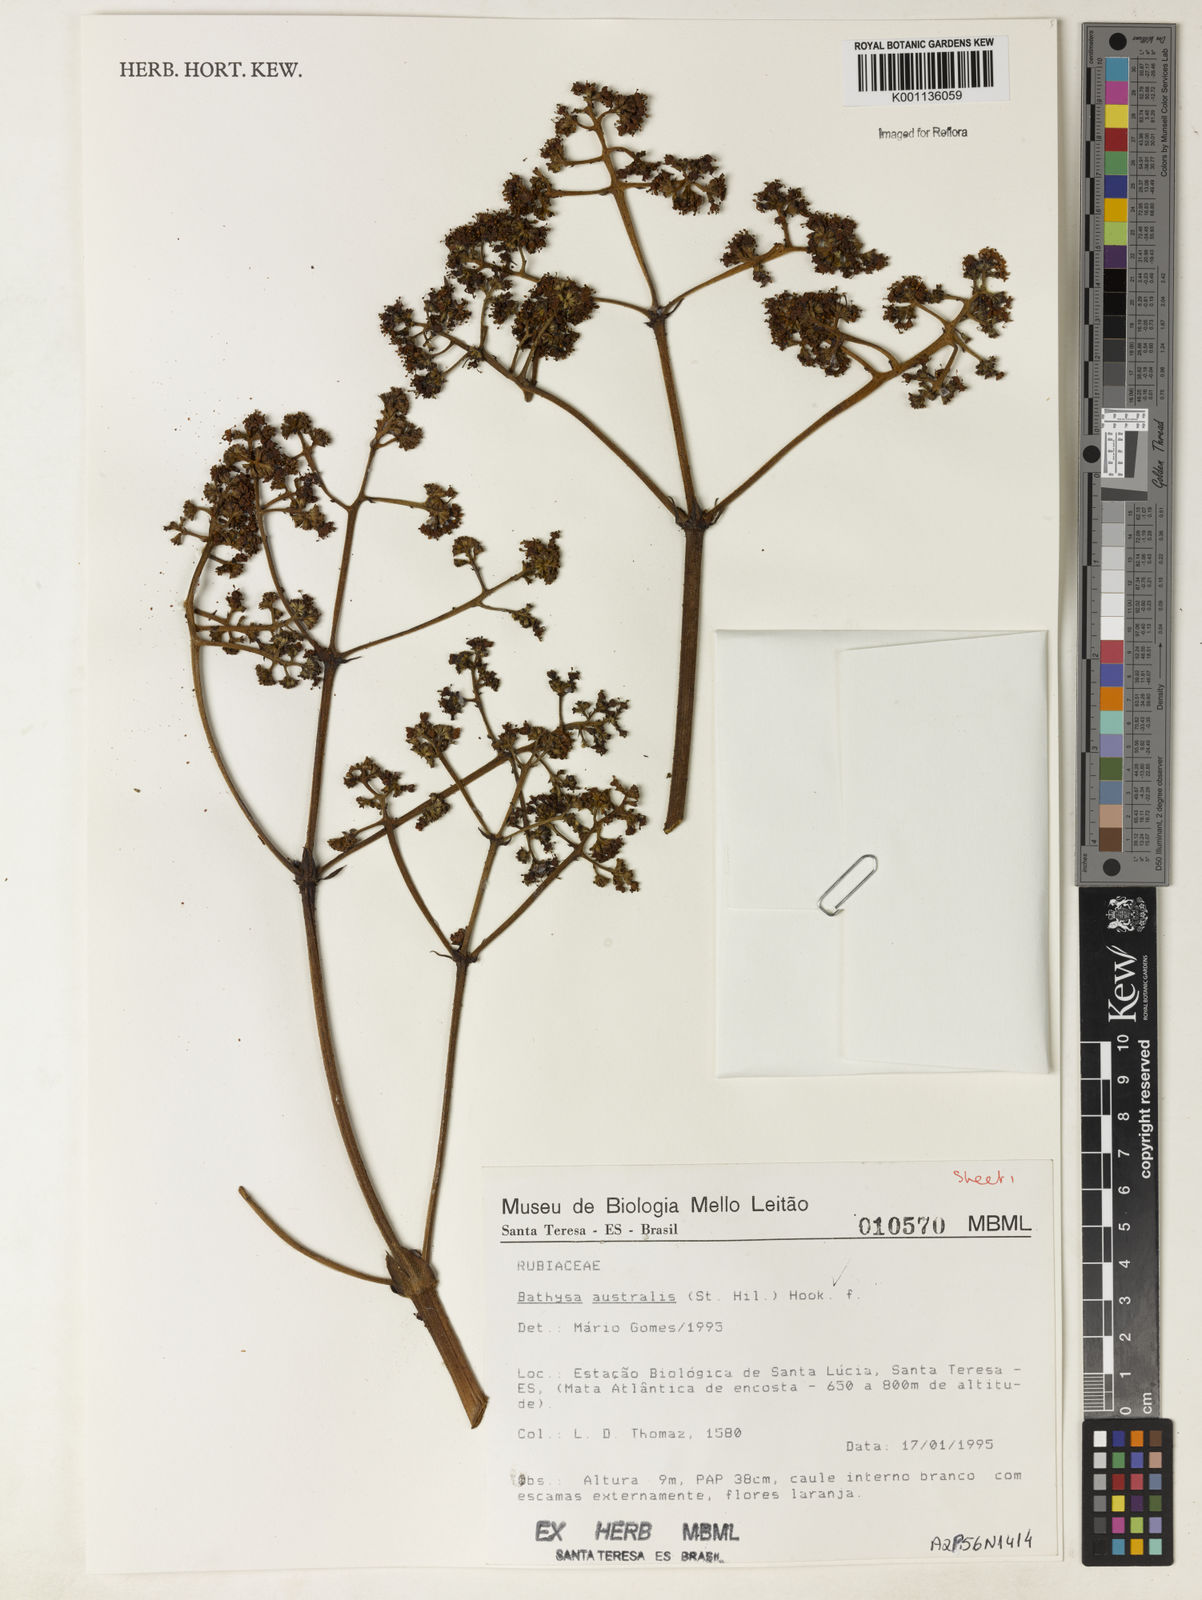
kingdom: Plantae
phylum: Tracheophyta
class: Magnoliopsida
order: Gentianales
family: Rubiaceae
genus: Bathysa
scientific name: Bathysa australis
